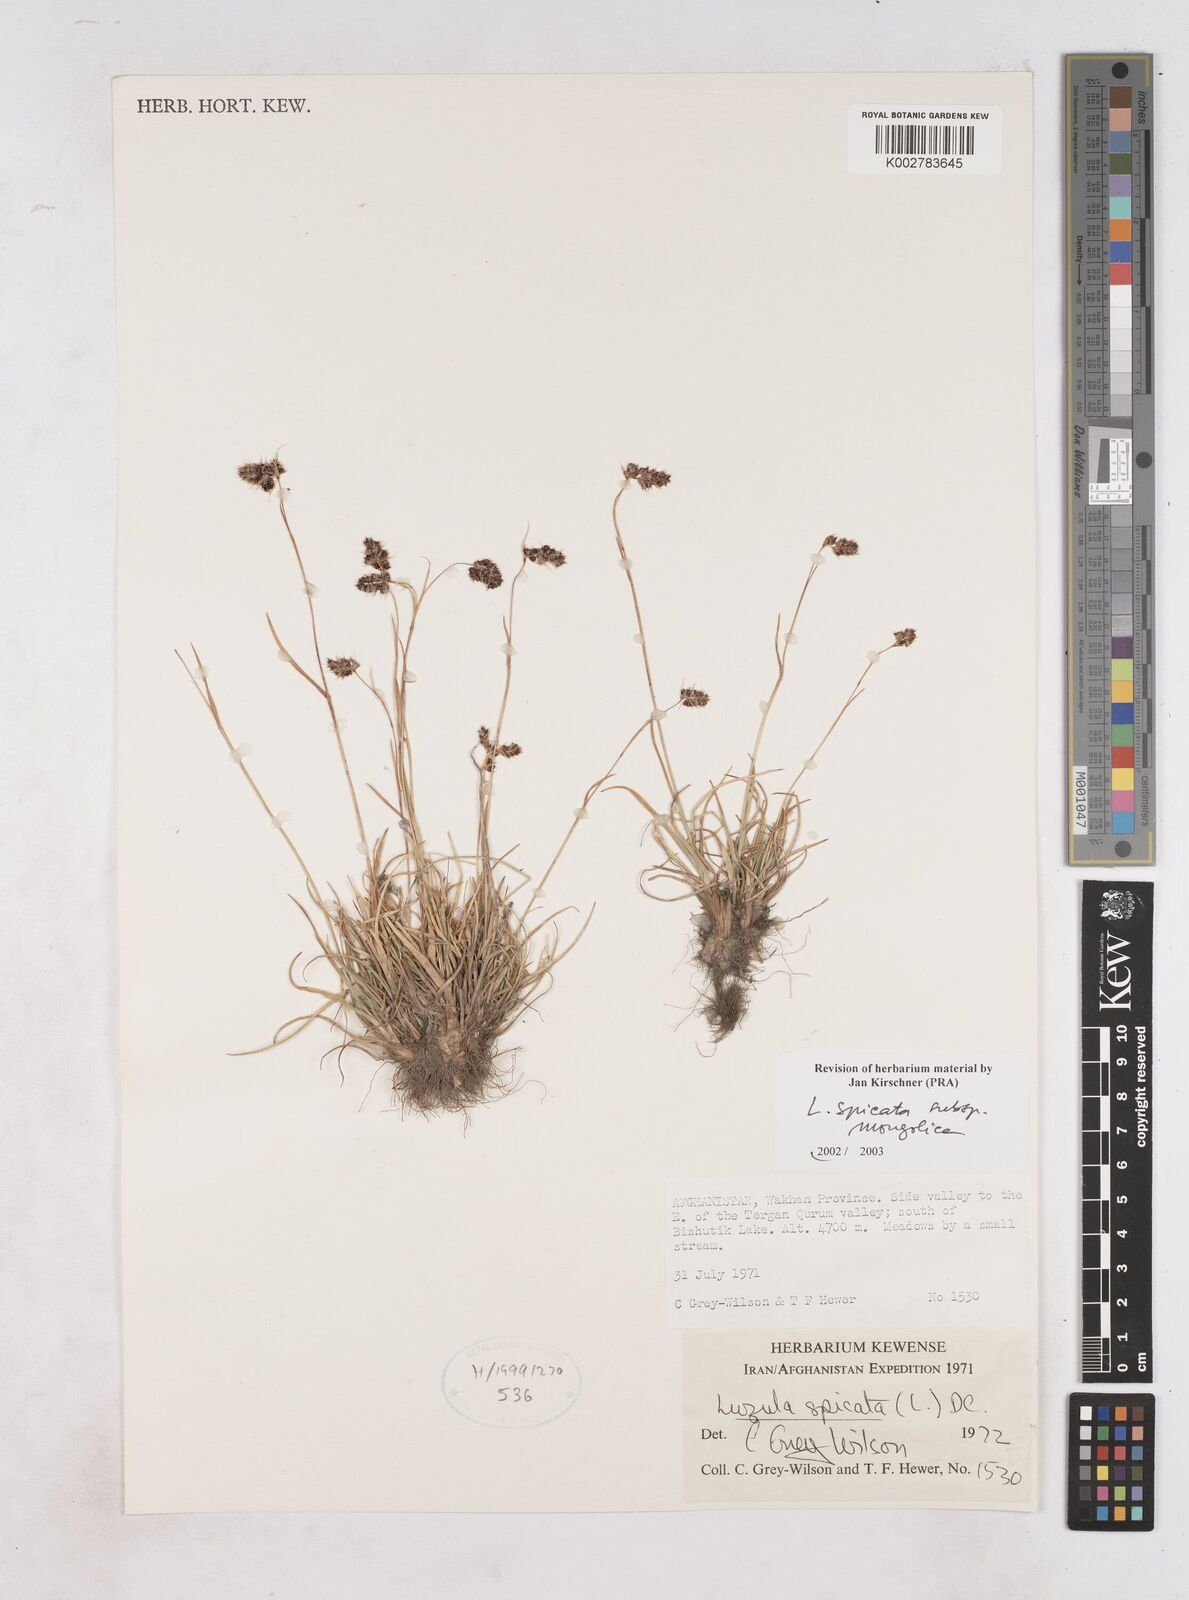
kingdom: Plantae
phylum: Tracheophyta
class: Liliopsida
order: Poales
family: Juncaceae
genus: Luzula
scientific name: Luzula spicata
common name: Spiked wood-rush
